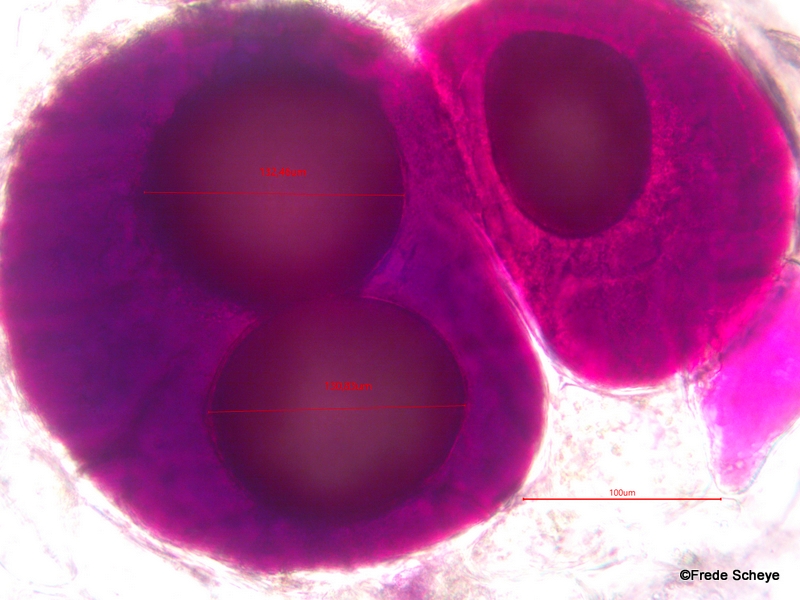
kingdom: Fungi
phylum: Chytridiomycota
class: Chytridiomycetes
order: Chytridiales
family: Synchytriaceae
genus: Synchytrium
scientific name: Synchytrium anemones
